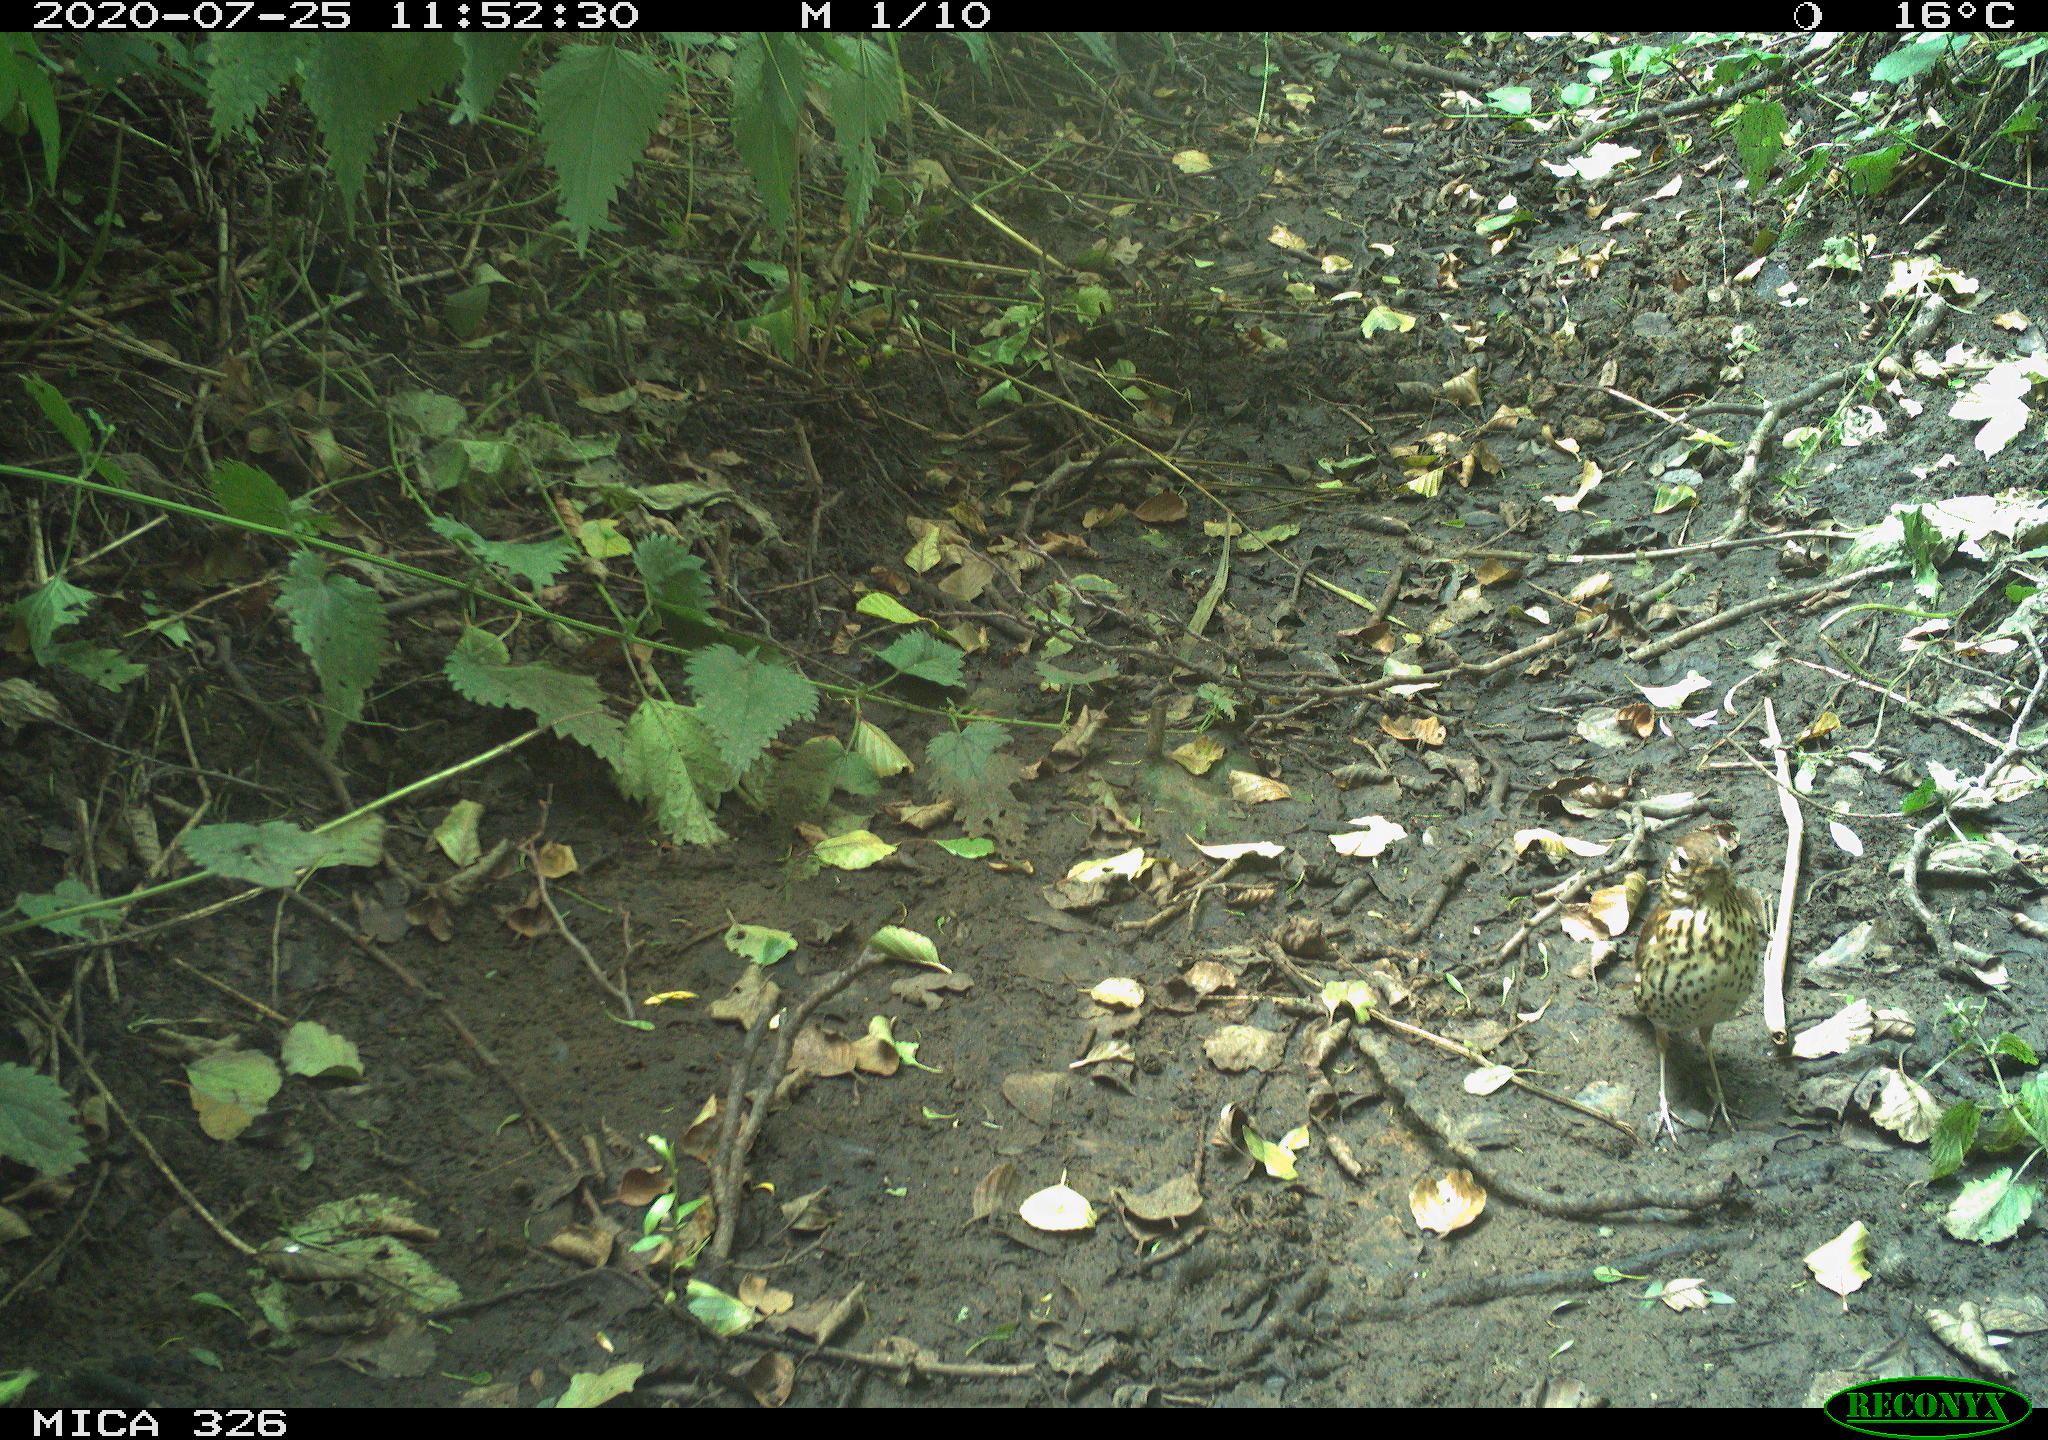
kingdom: Animalia
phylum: Chordata
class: Aves
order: Passeriformes
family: Turdidae
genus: Turdus
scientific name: Turdus philomelos
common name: Song thrush
